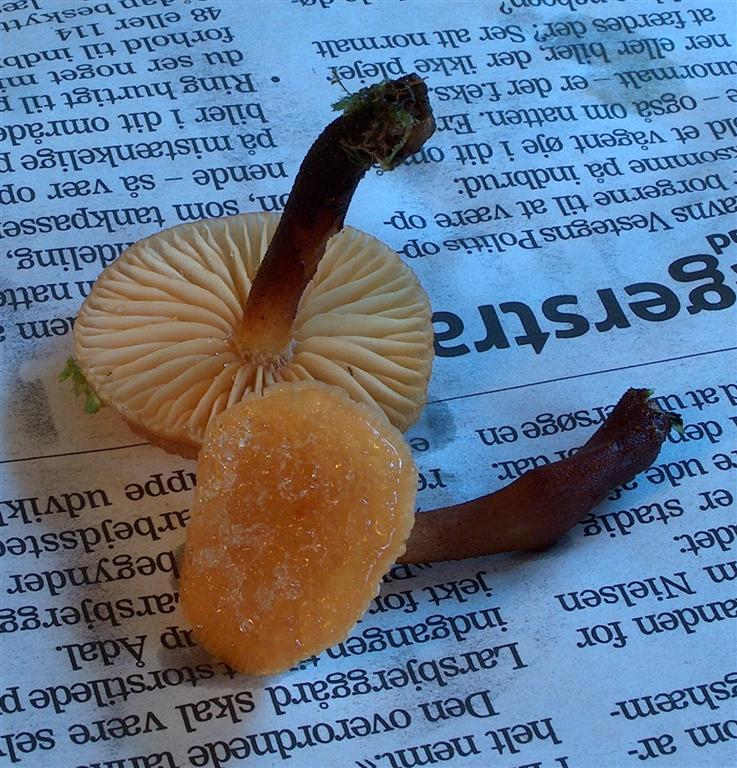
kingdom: Fungi
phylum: Basidiomycota
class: Agaricomycetes
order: Agaricales
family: Physalacriaceae
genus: Flammulina
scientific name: Flammulina elastica
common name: pile-fløjlsfod
